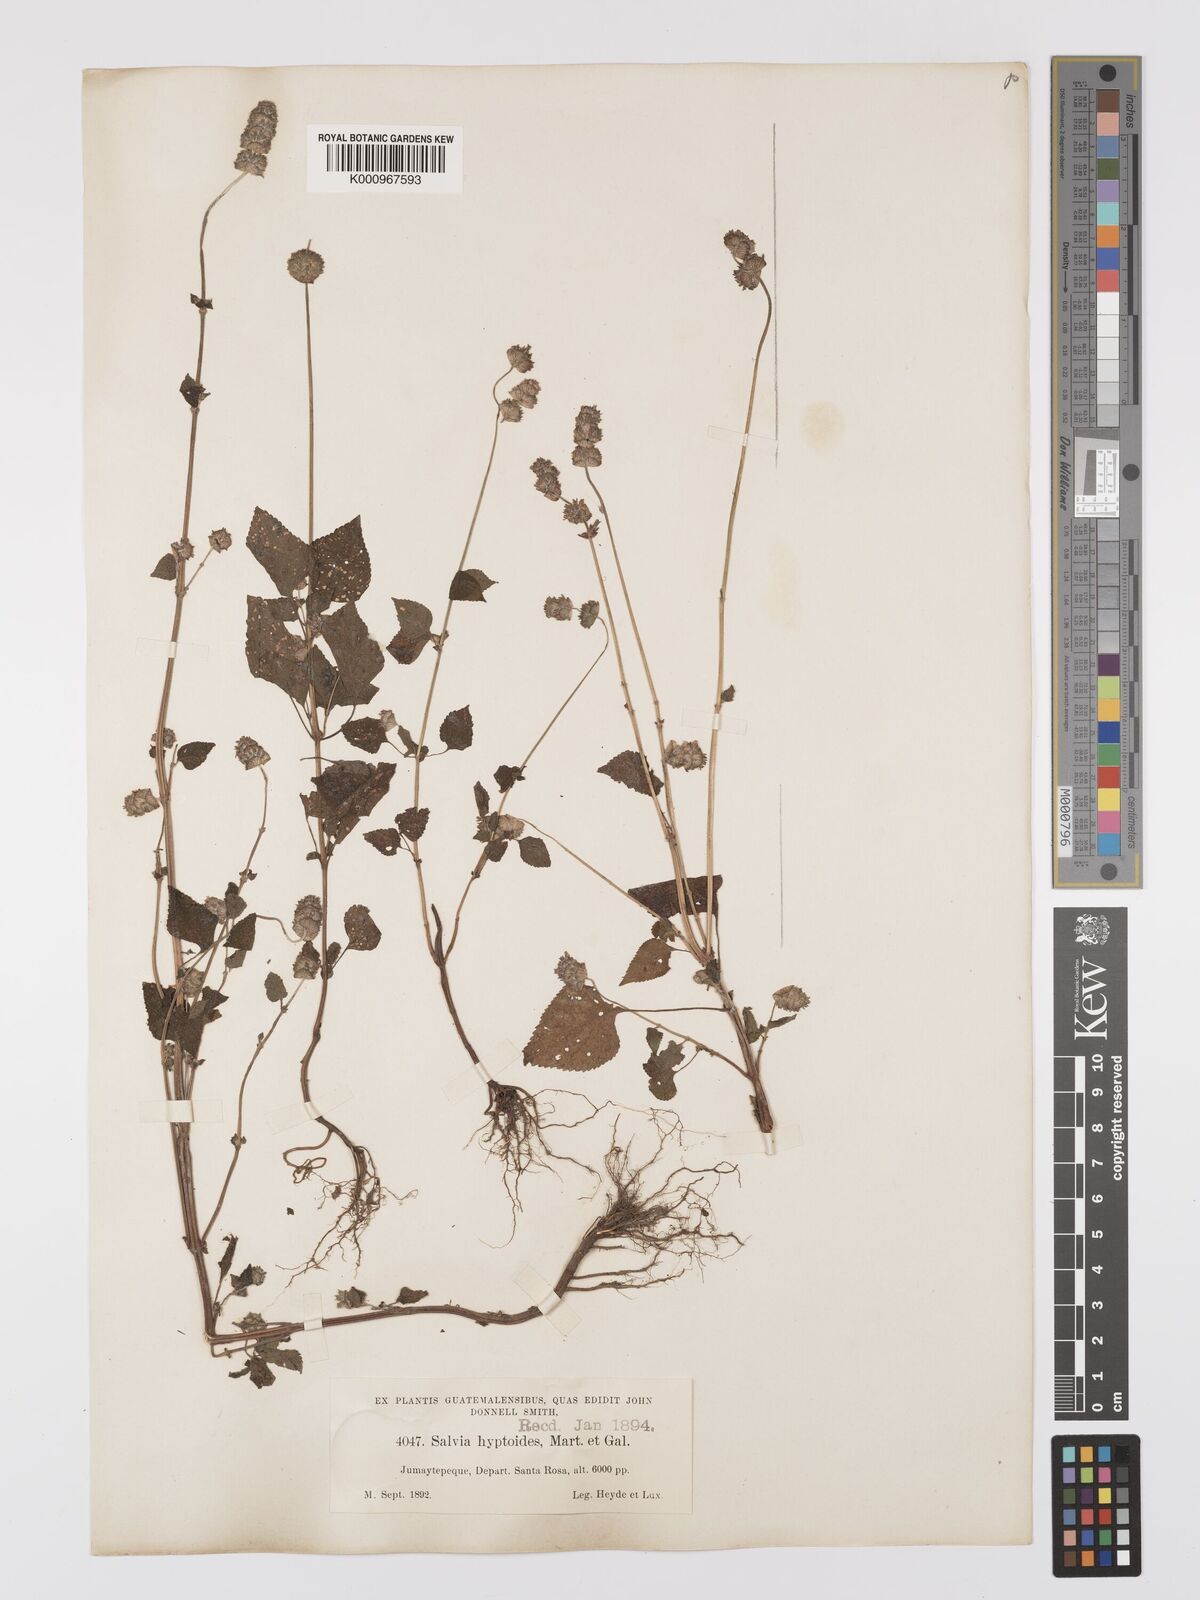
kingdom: Plantae
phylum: Tracheophyta
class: Magnoliopsida
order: Lamiales
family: Lamiaceae
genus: Salvia
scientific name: Salvia elegans
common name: Pineapple sage
